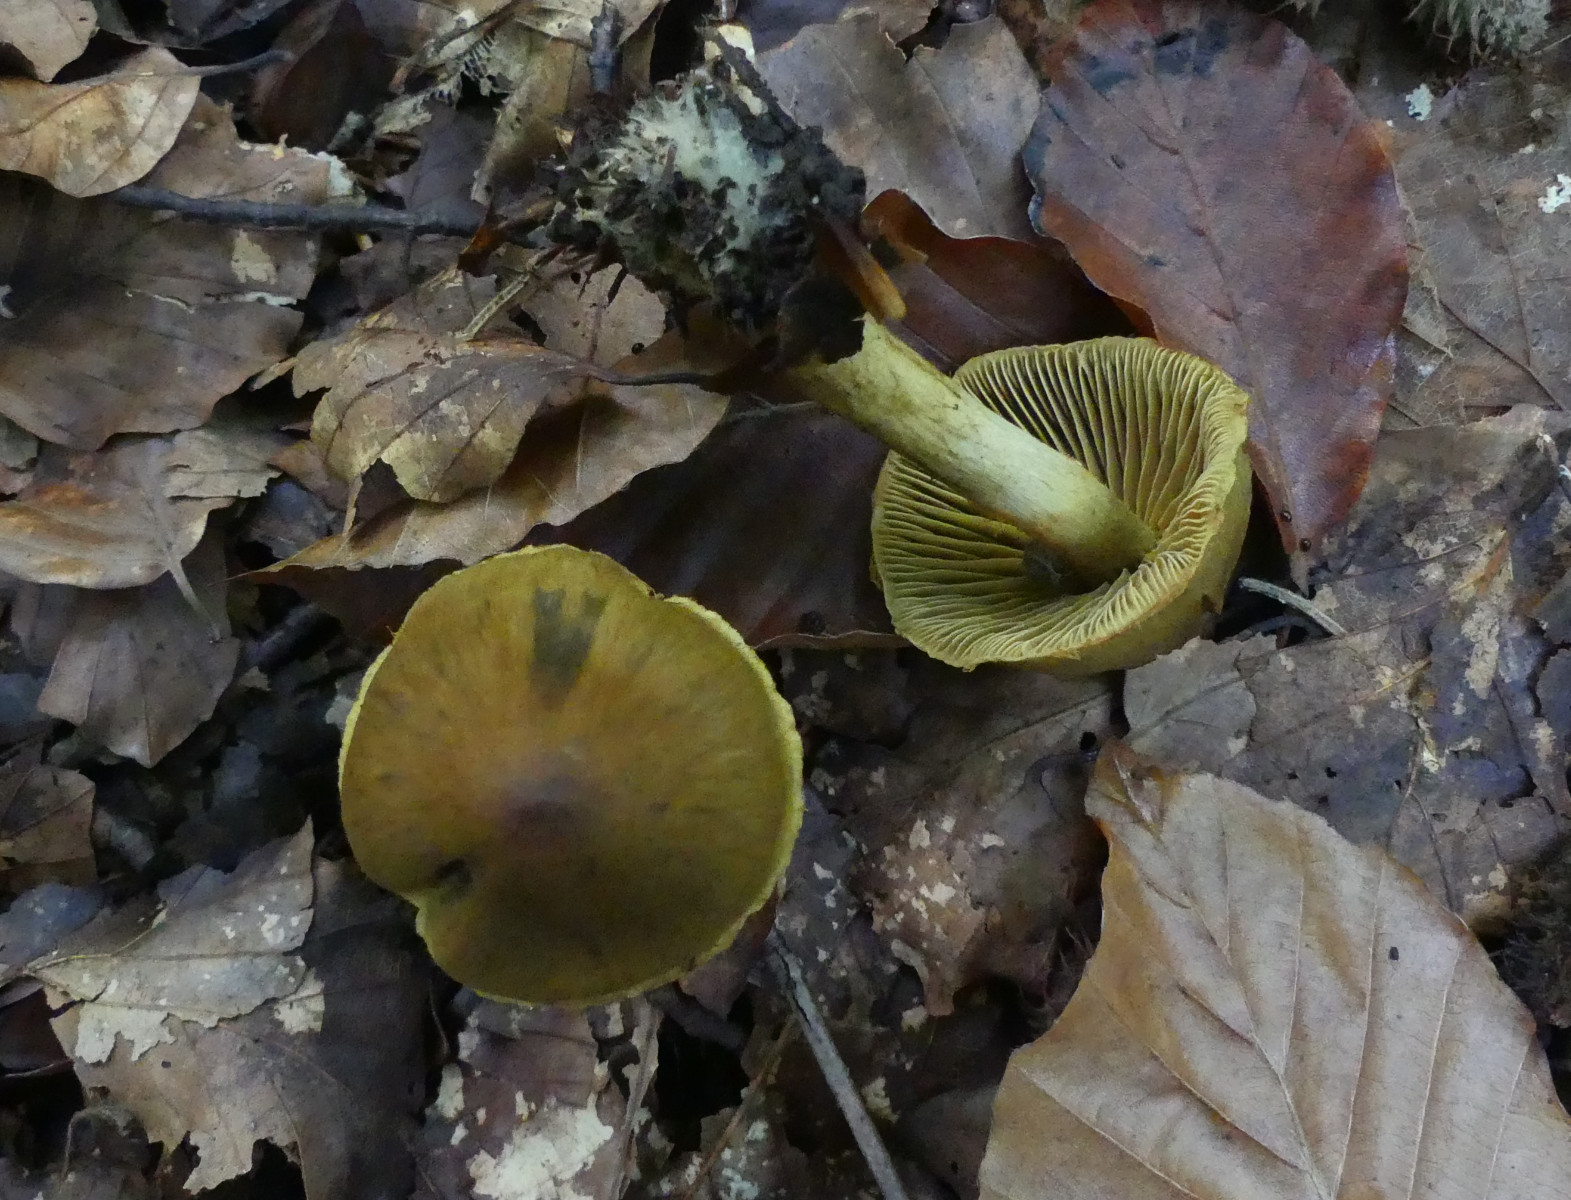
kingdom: Fungi
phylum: Basidiomycota
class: Agaricomycetes
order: Agaricales
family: Cortinariaceae
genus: Cortinarius
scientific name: Cortinarius olivaceofuscus
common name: olivenbrun slørhat
